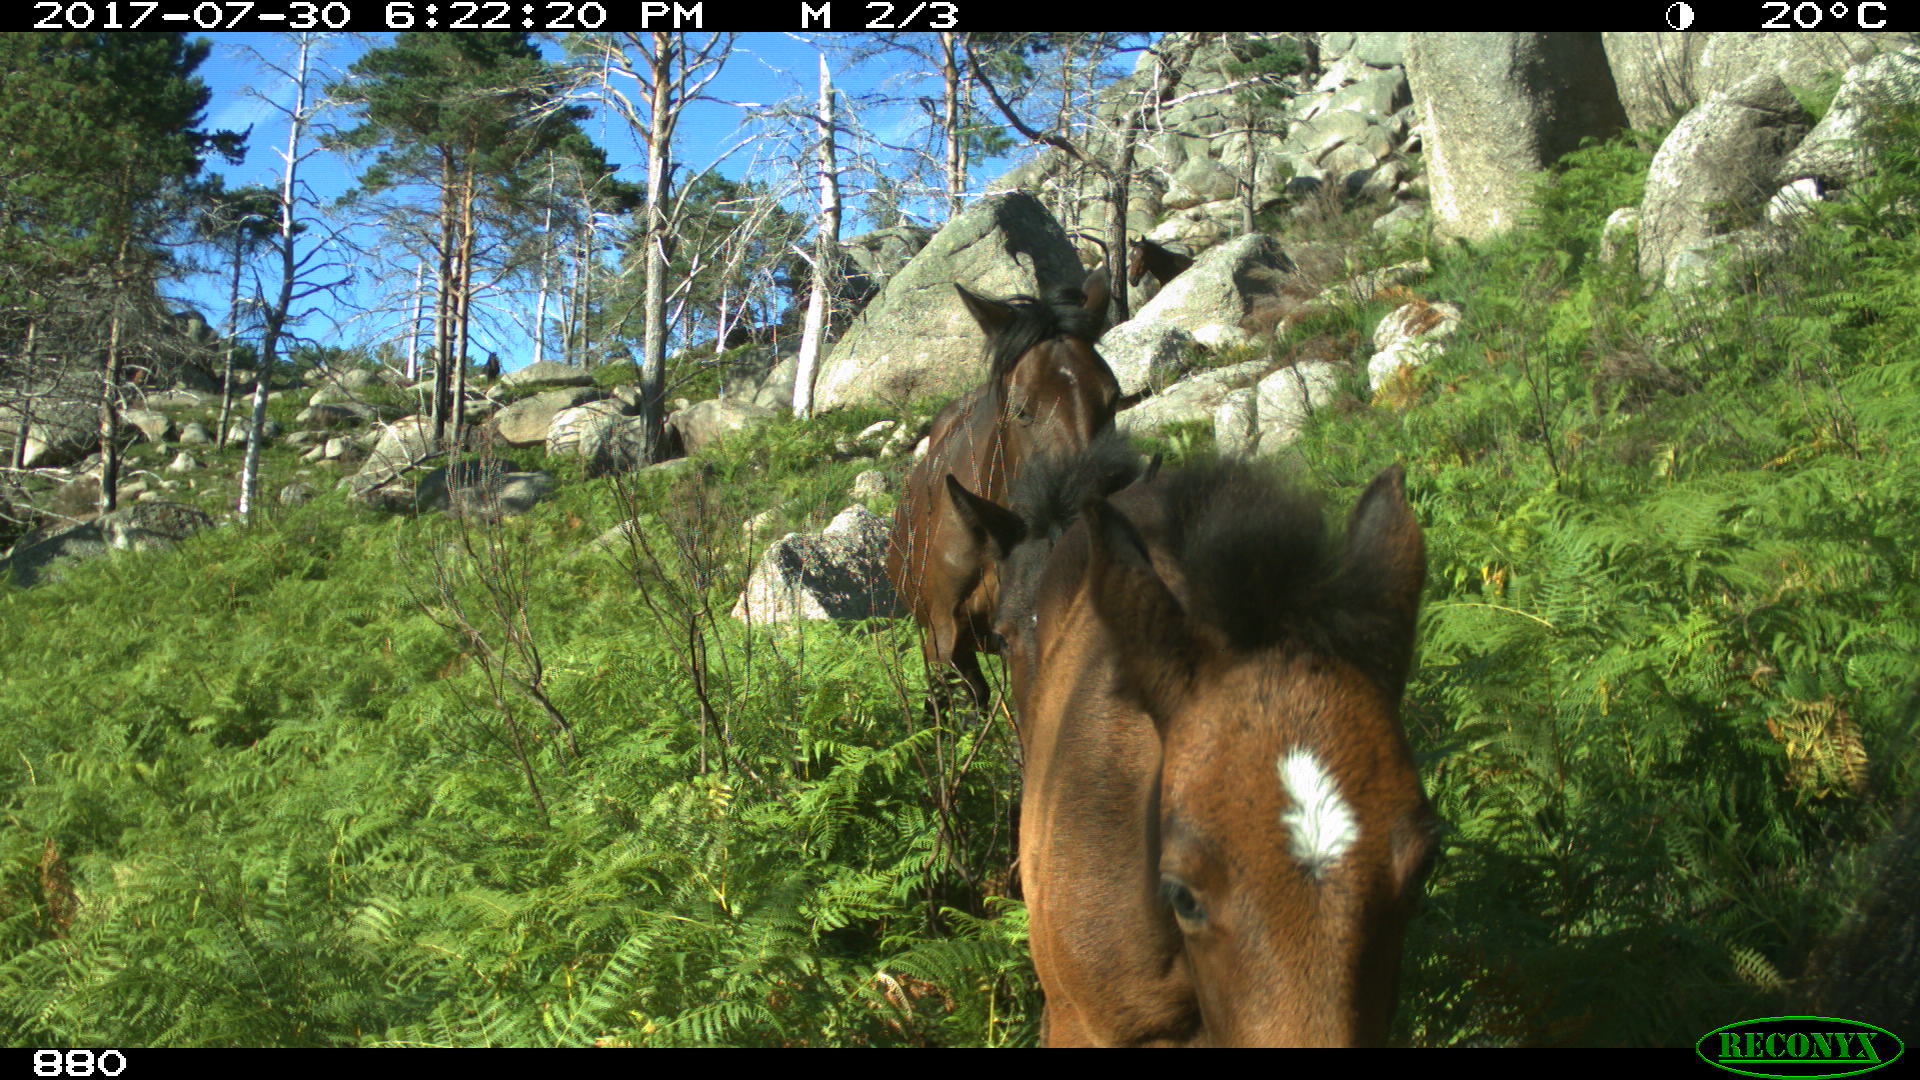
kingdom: Animalia
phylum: Chordata
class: Mammalia
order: Perissodactyla
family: Equidae
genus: Equus
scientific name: Equus caballus
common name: Horse
